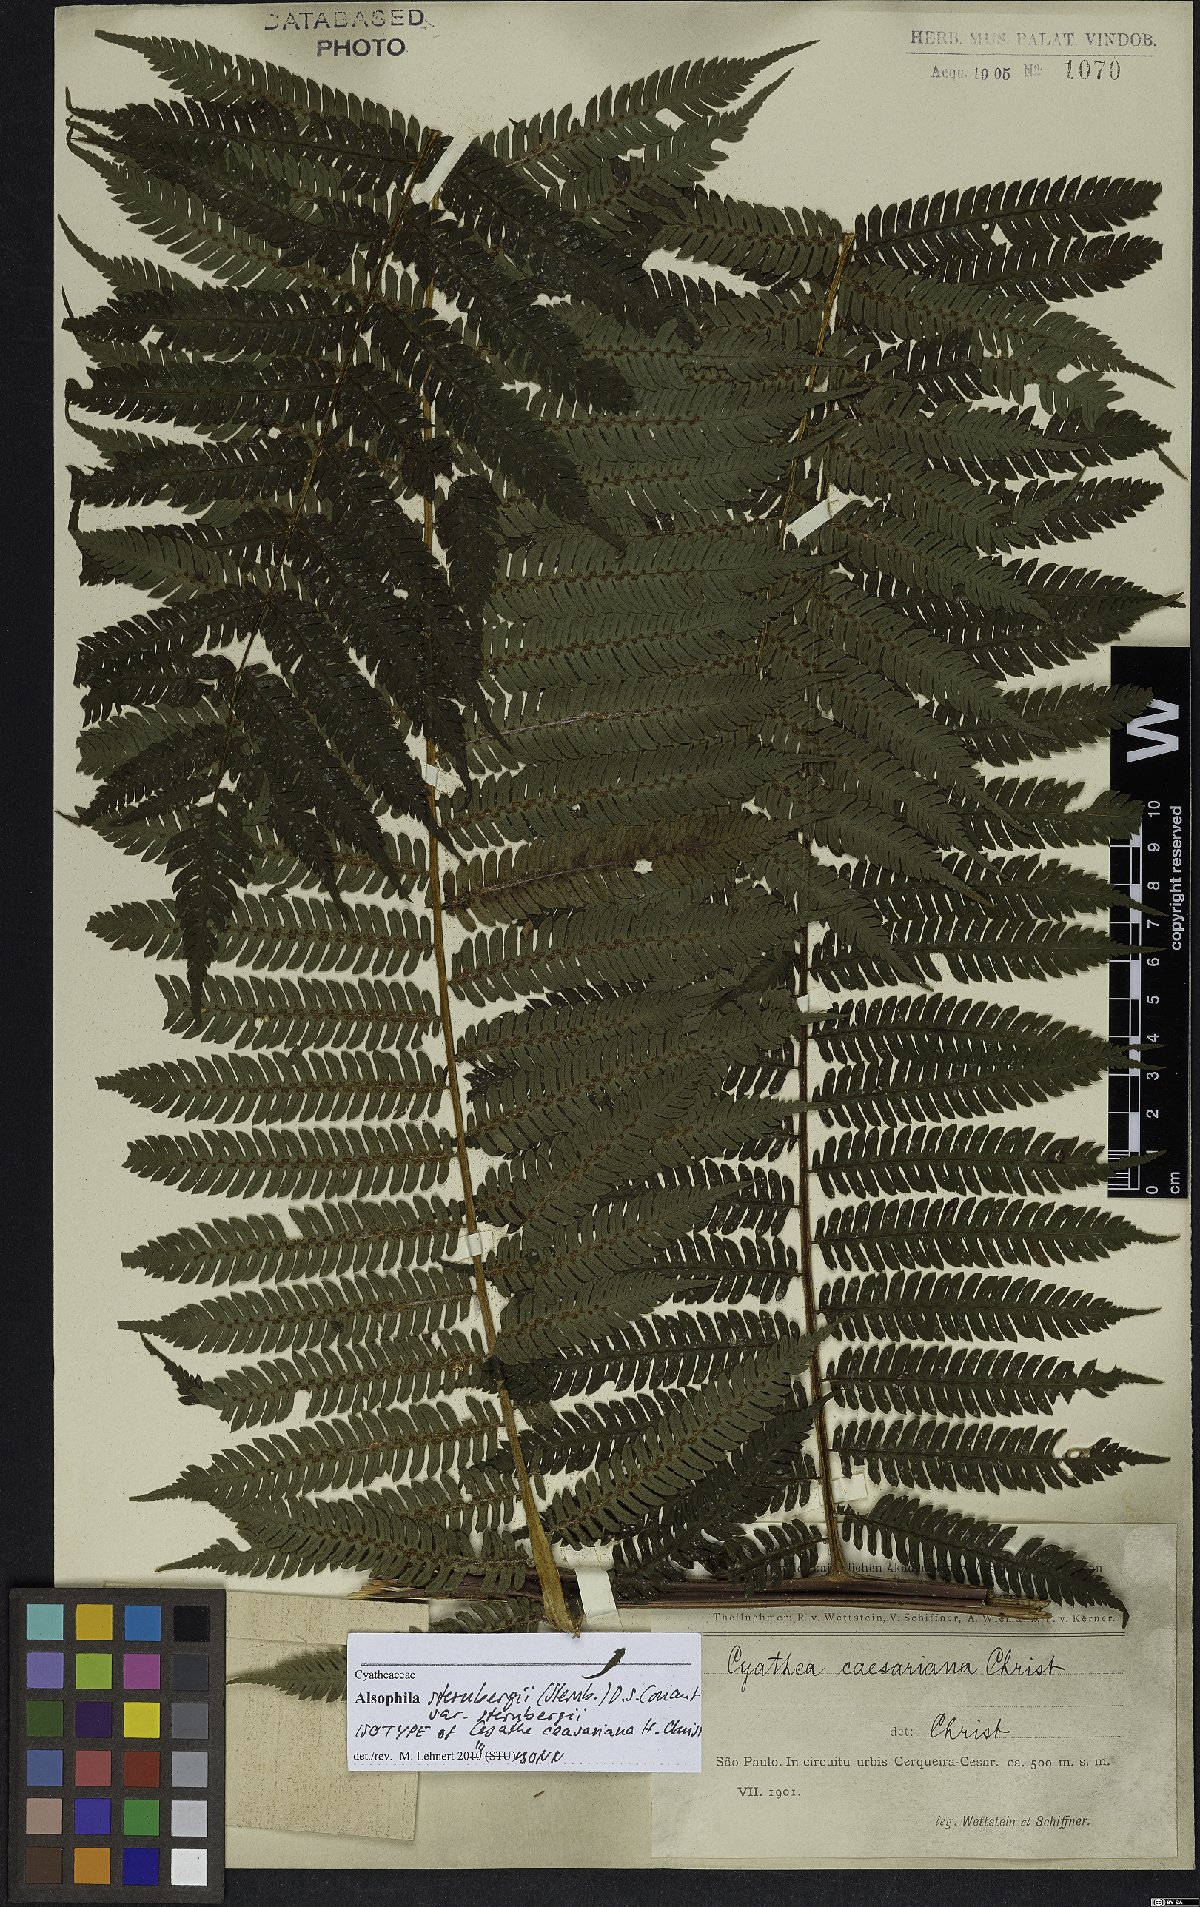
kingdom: Plantae
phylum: Tracheophyta
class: Polypodiopsida
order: Cyatheales
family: Cyatheaceae
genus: Alsophila
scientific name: Alsophila sternbergii
